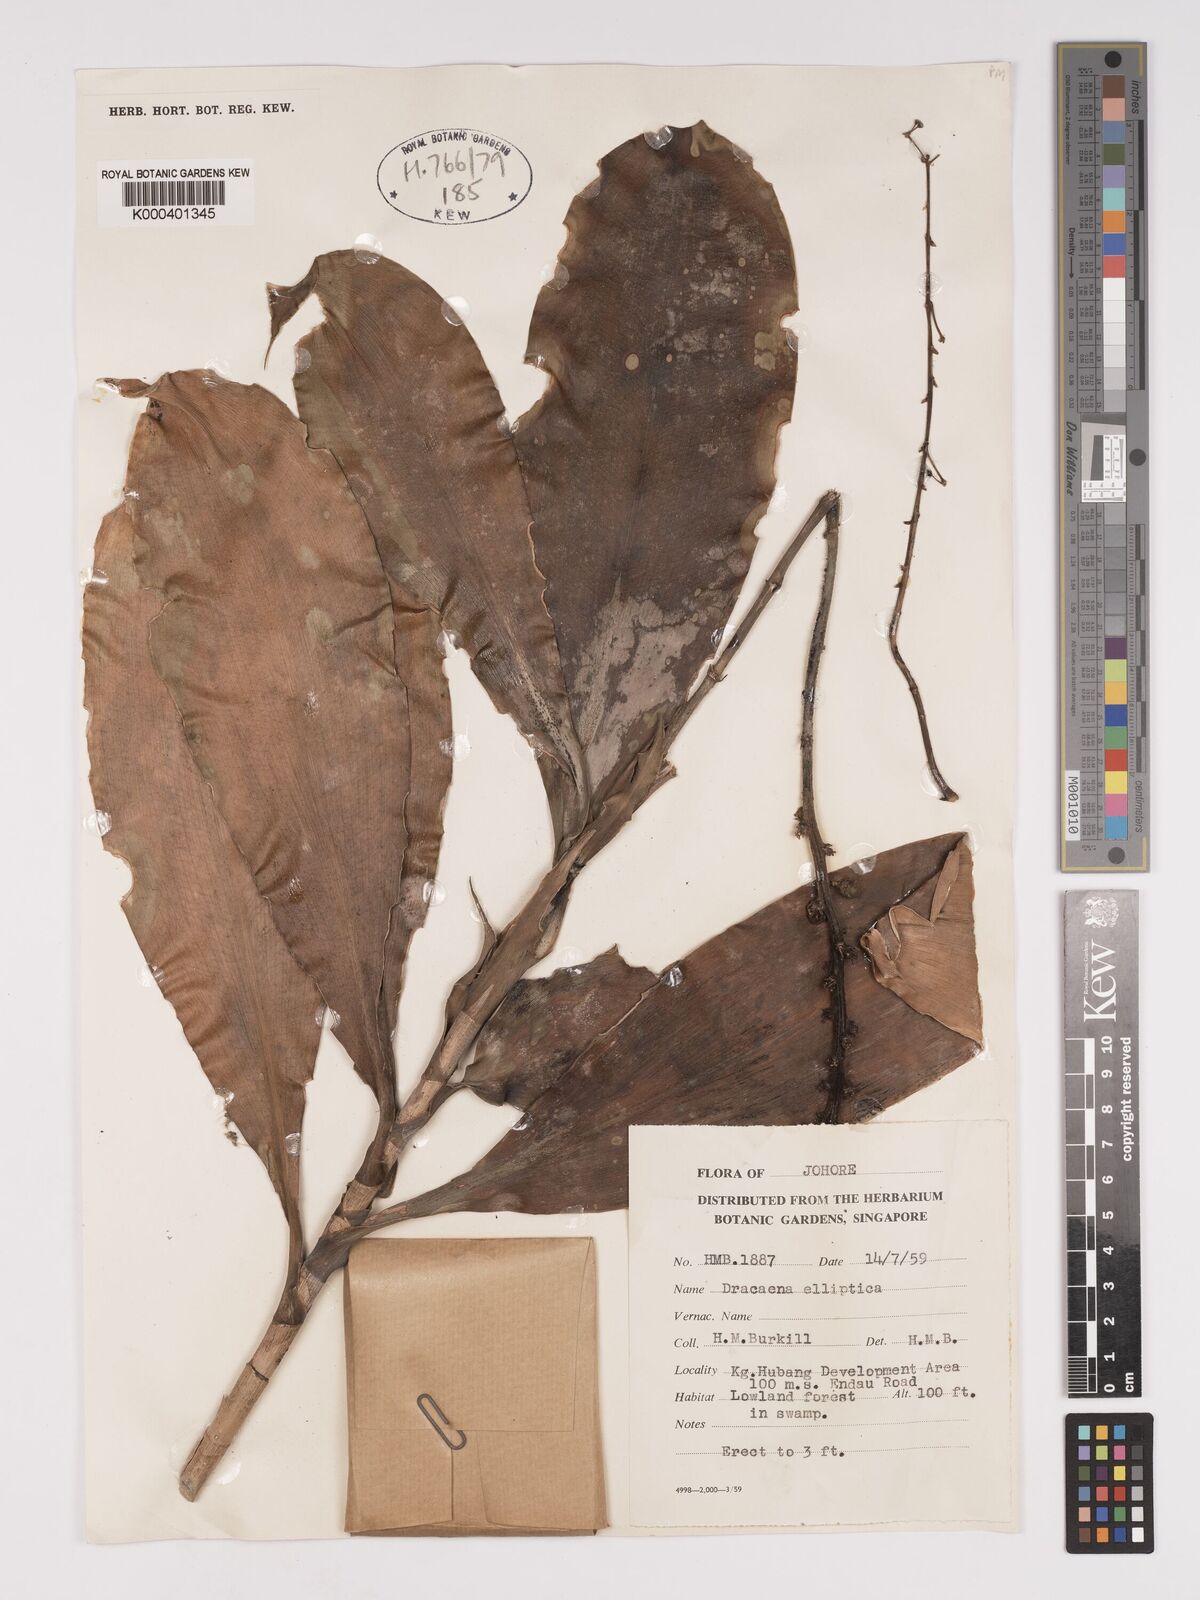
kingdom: Plantae
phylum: Tracheophyta
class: Liliopsida
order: Asparagales
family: Asparagaceae
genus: Dracaena
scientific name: Dracaena elliptica
